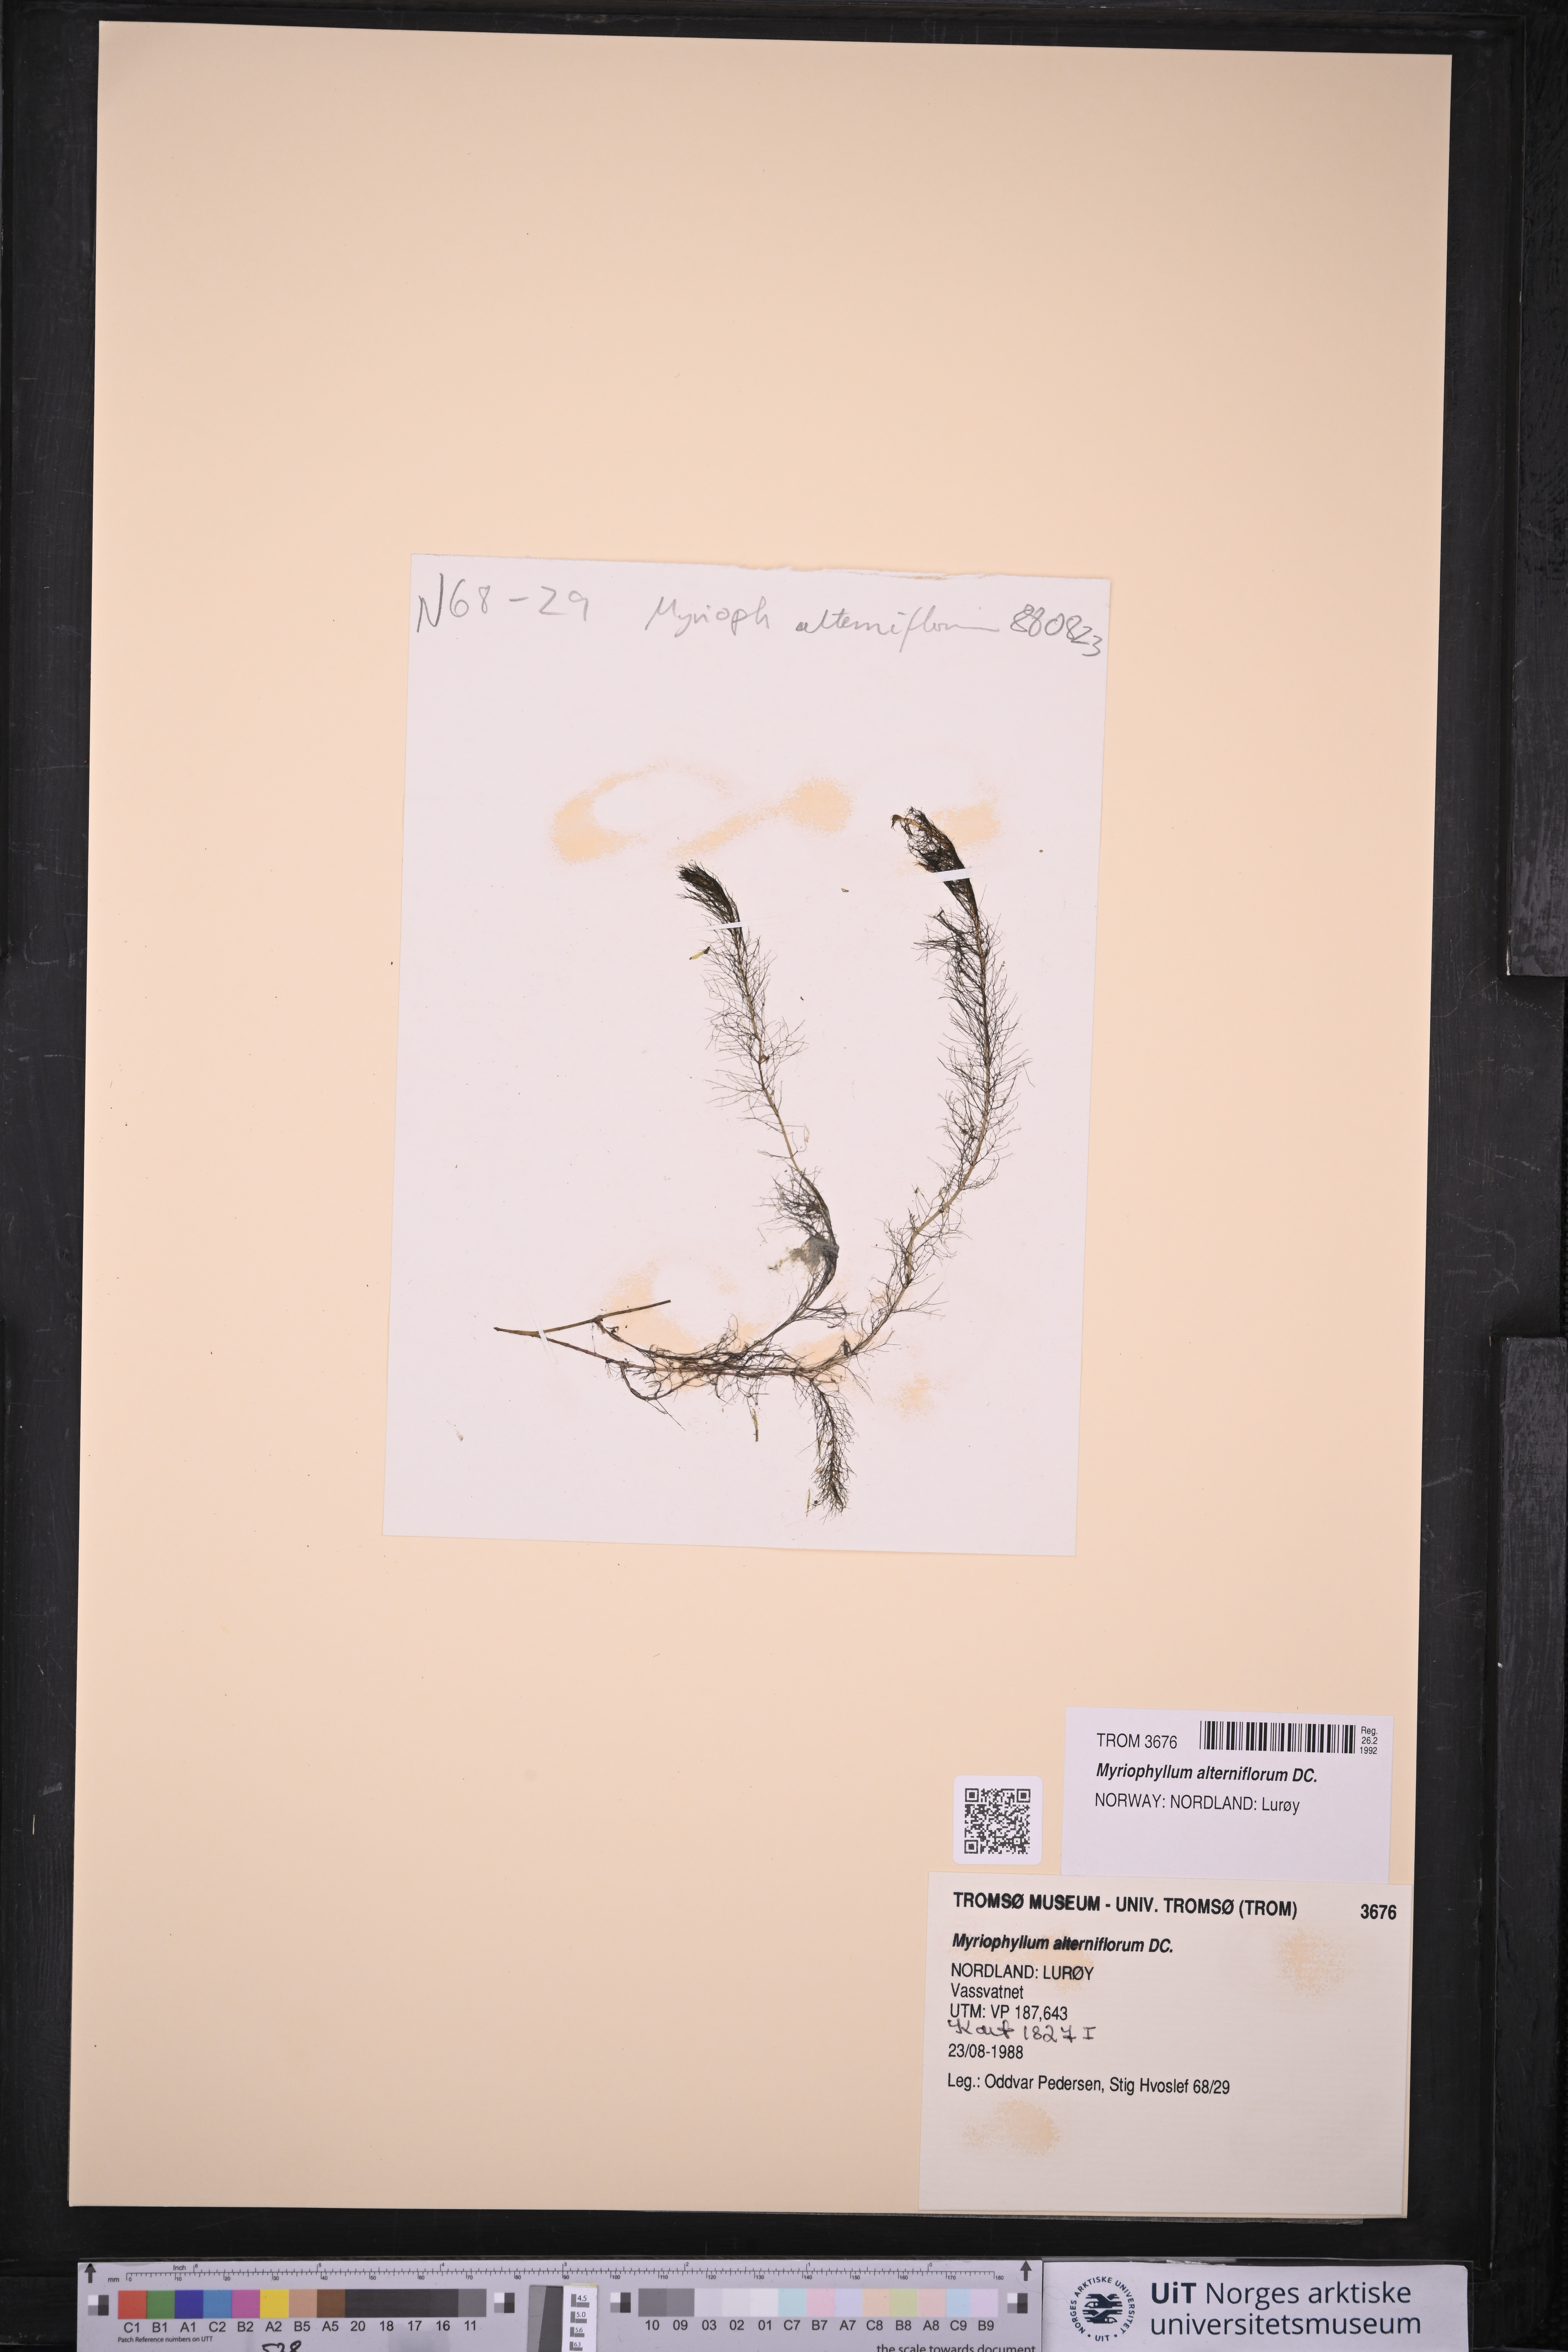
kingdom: Plantae
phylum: Tracheophyta
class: Magnoliopsida
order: Saxifragales
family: Haloragaceae
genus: Myriophyllum
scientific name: Myriophyllum alterniflorum
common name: Alternate water-milfoil
